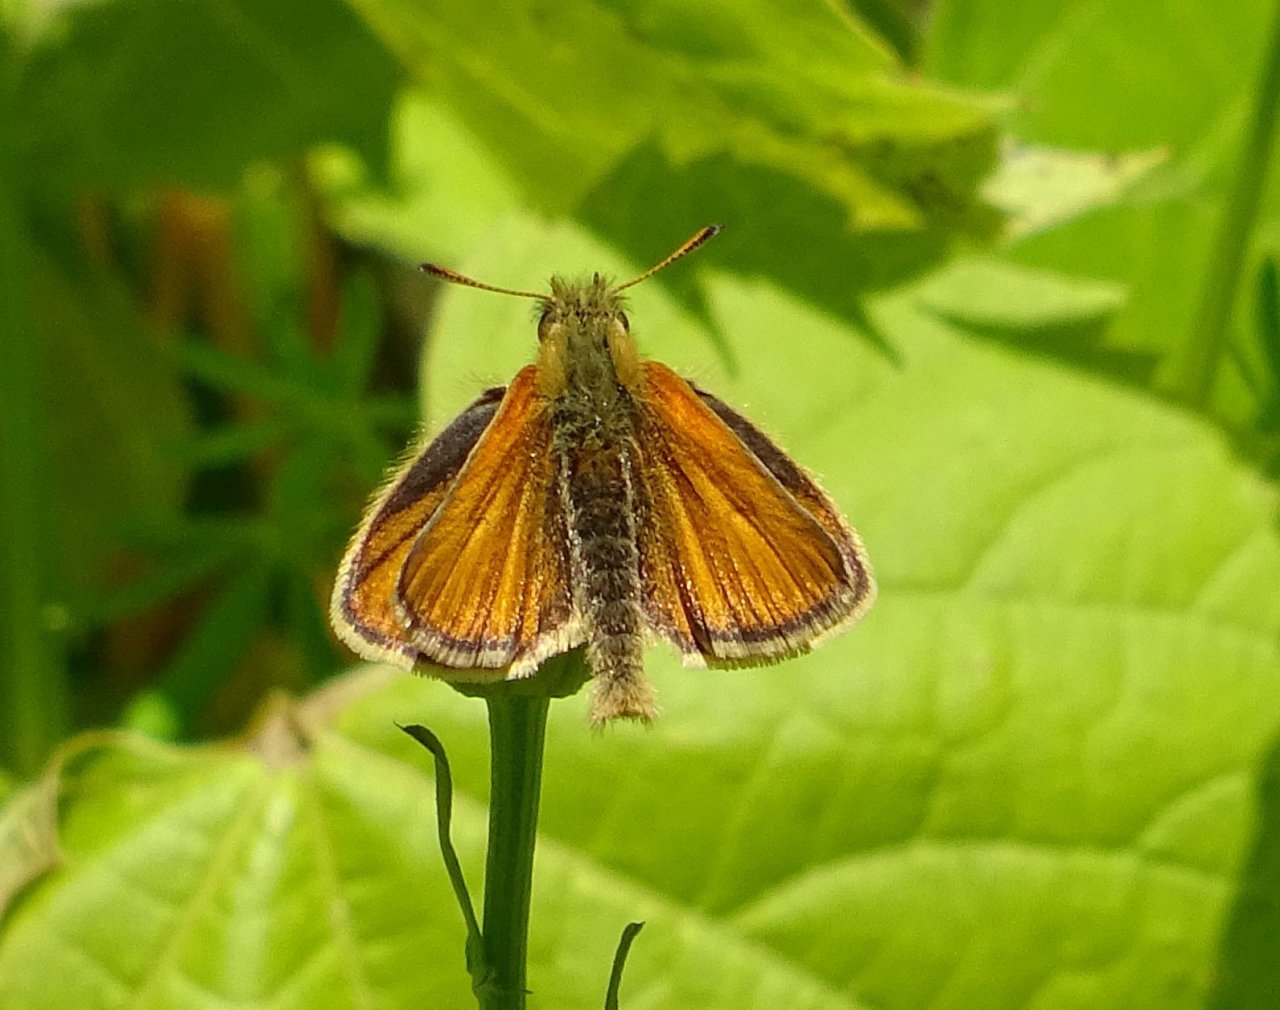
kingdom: Animalia
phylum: Arthropoda
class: Insecta
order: Lepidoptera
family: Hesperiidae
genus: Thymelicus
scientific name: Thymelicus lineola
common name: European Skipper
